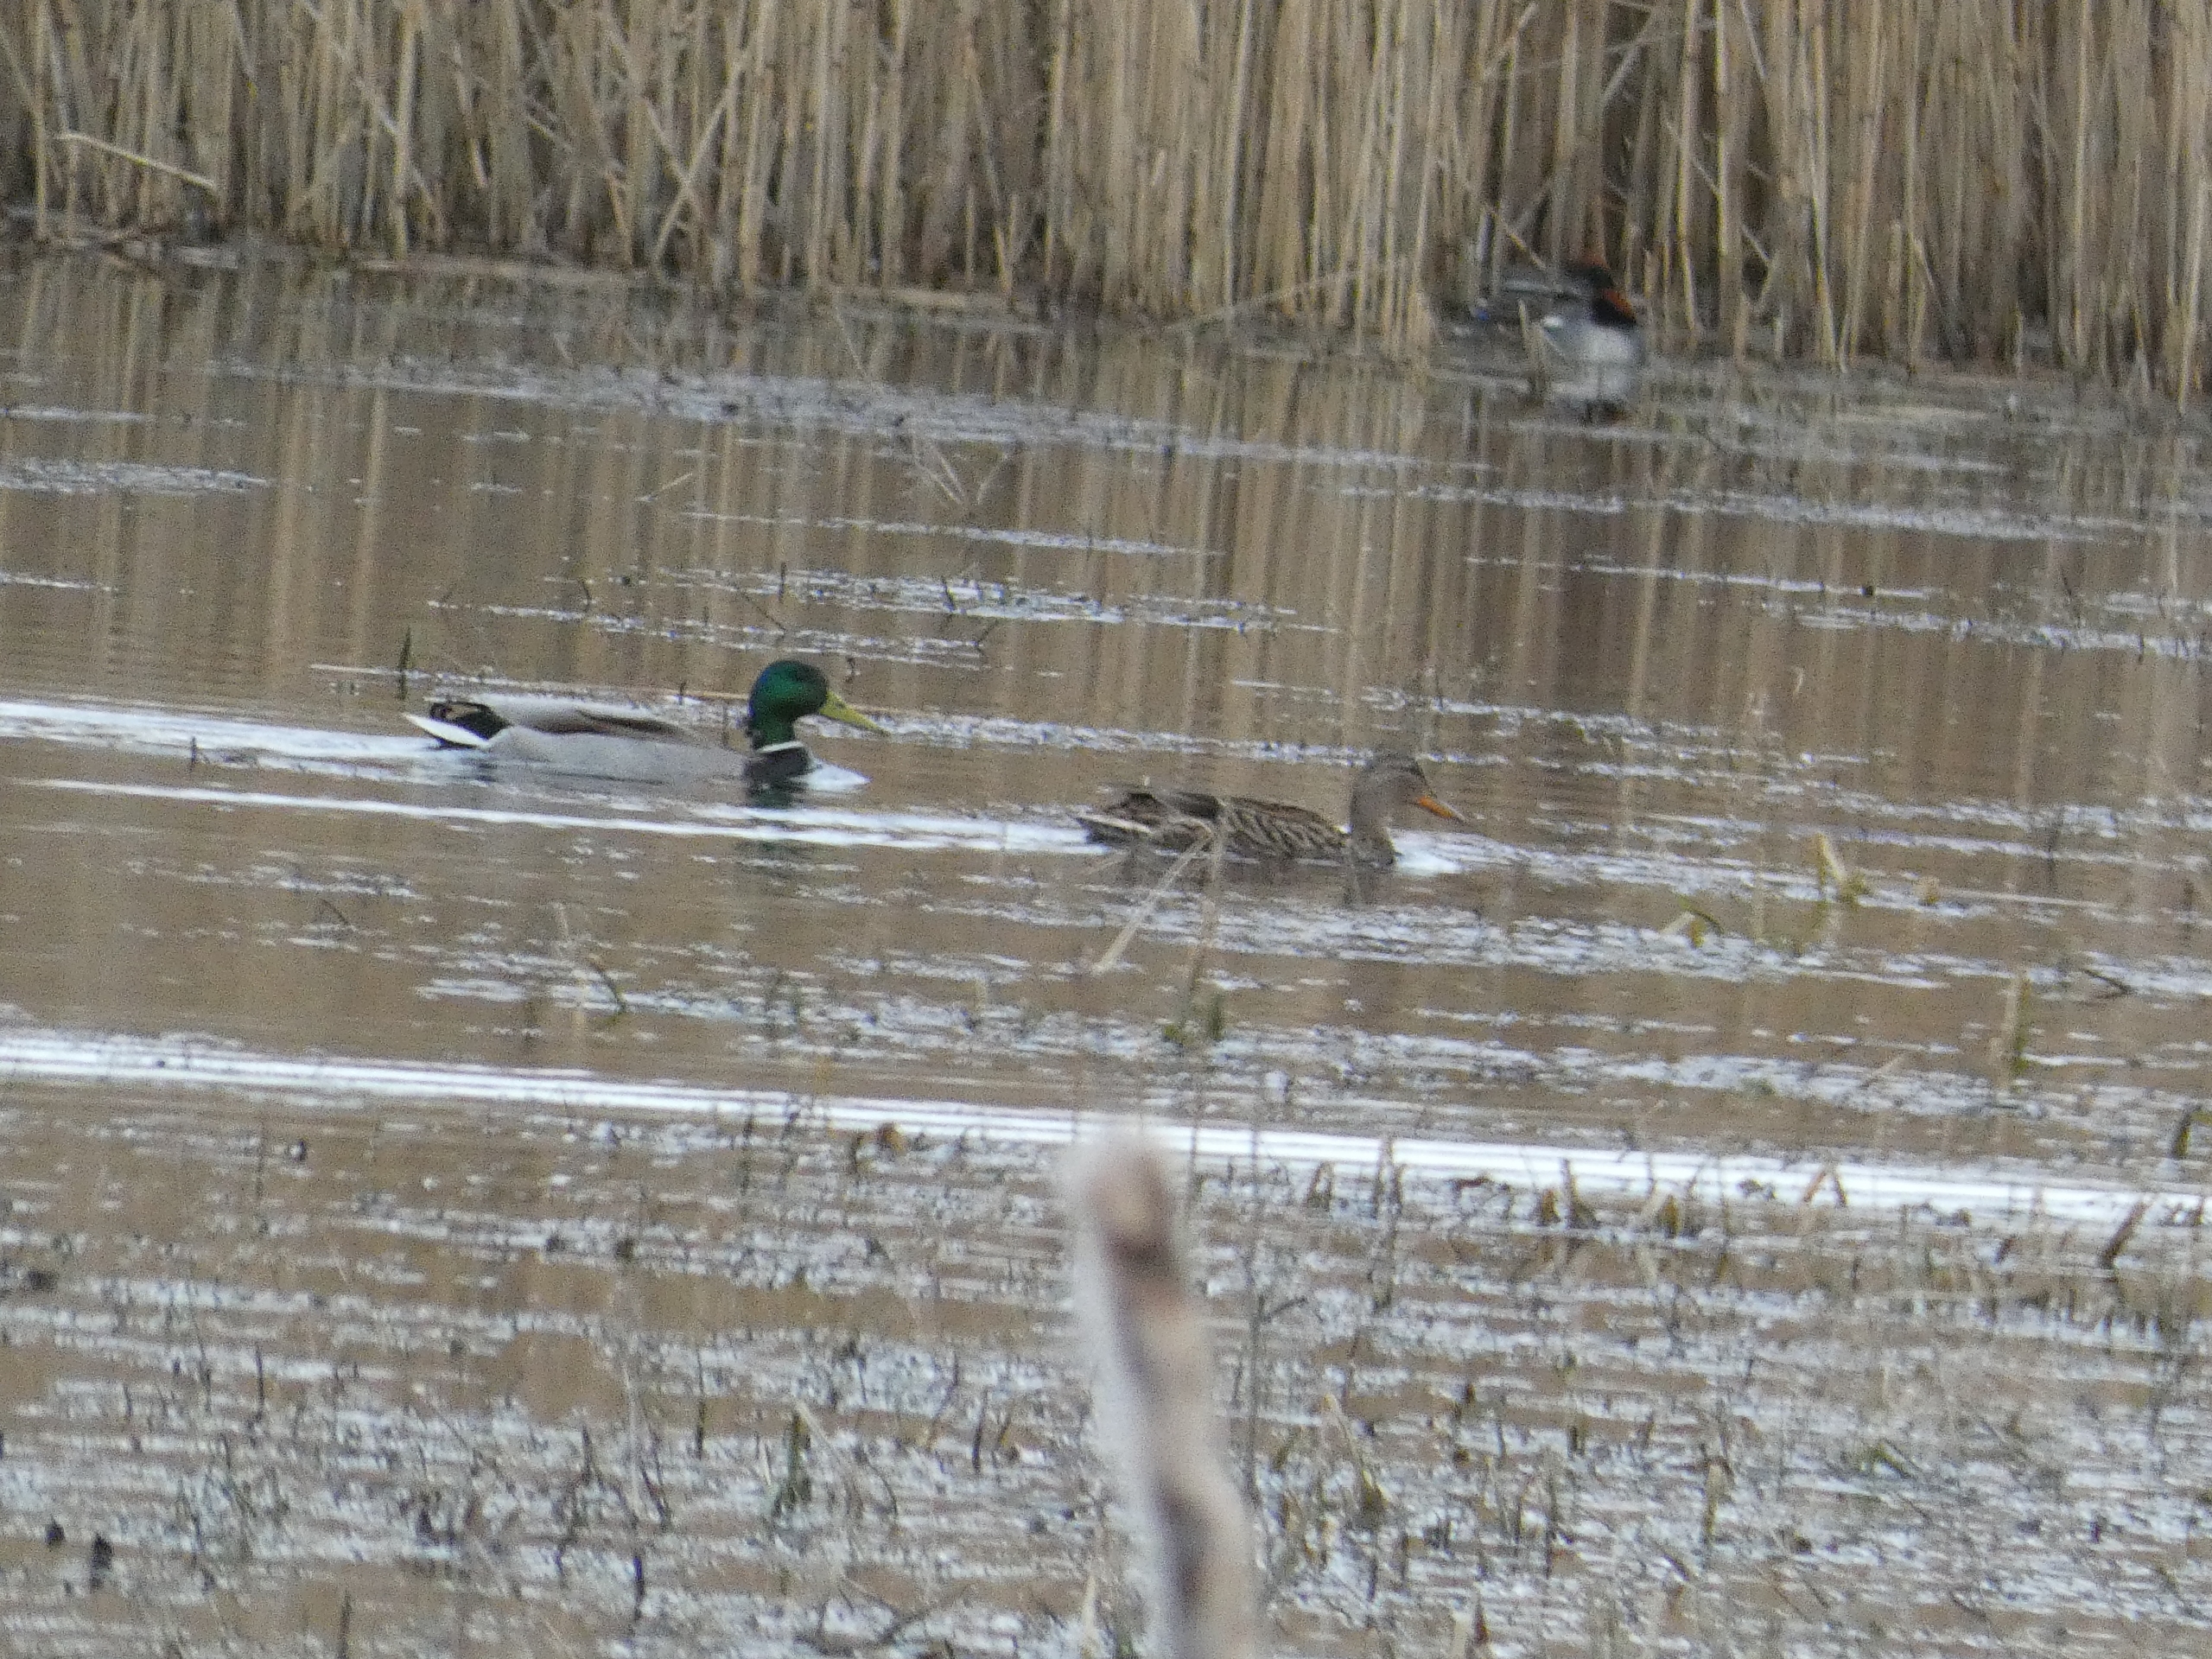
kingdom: Animalia
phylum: Chordata
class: Aves
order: Anseriformes
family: Anatidae
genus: Anas
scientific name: Anas platyrhynchos
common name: Gråand
